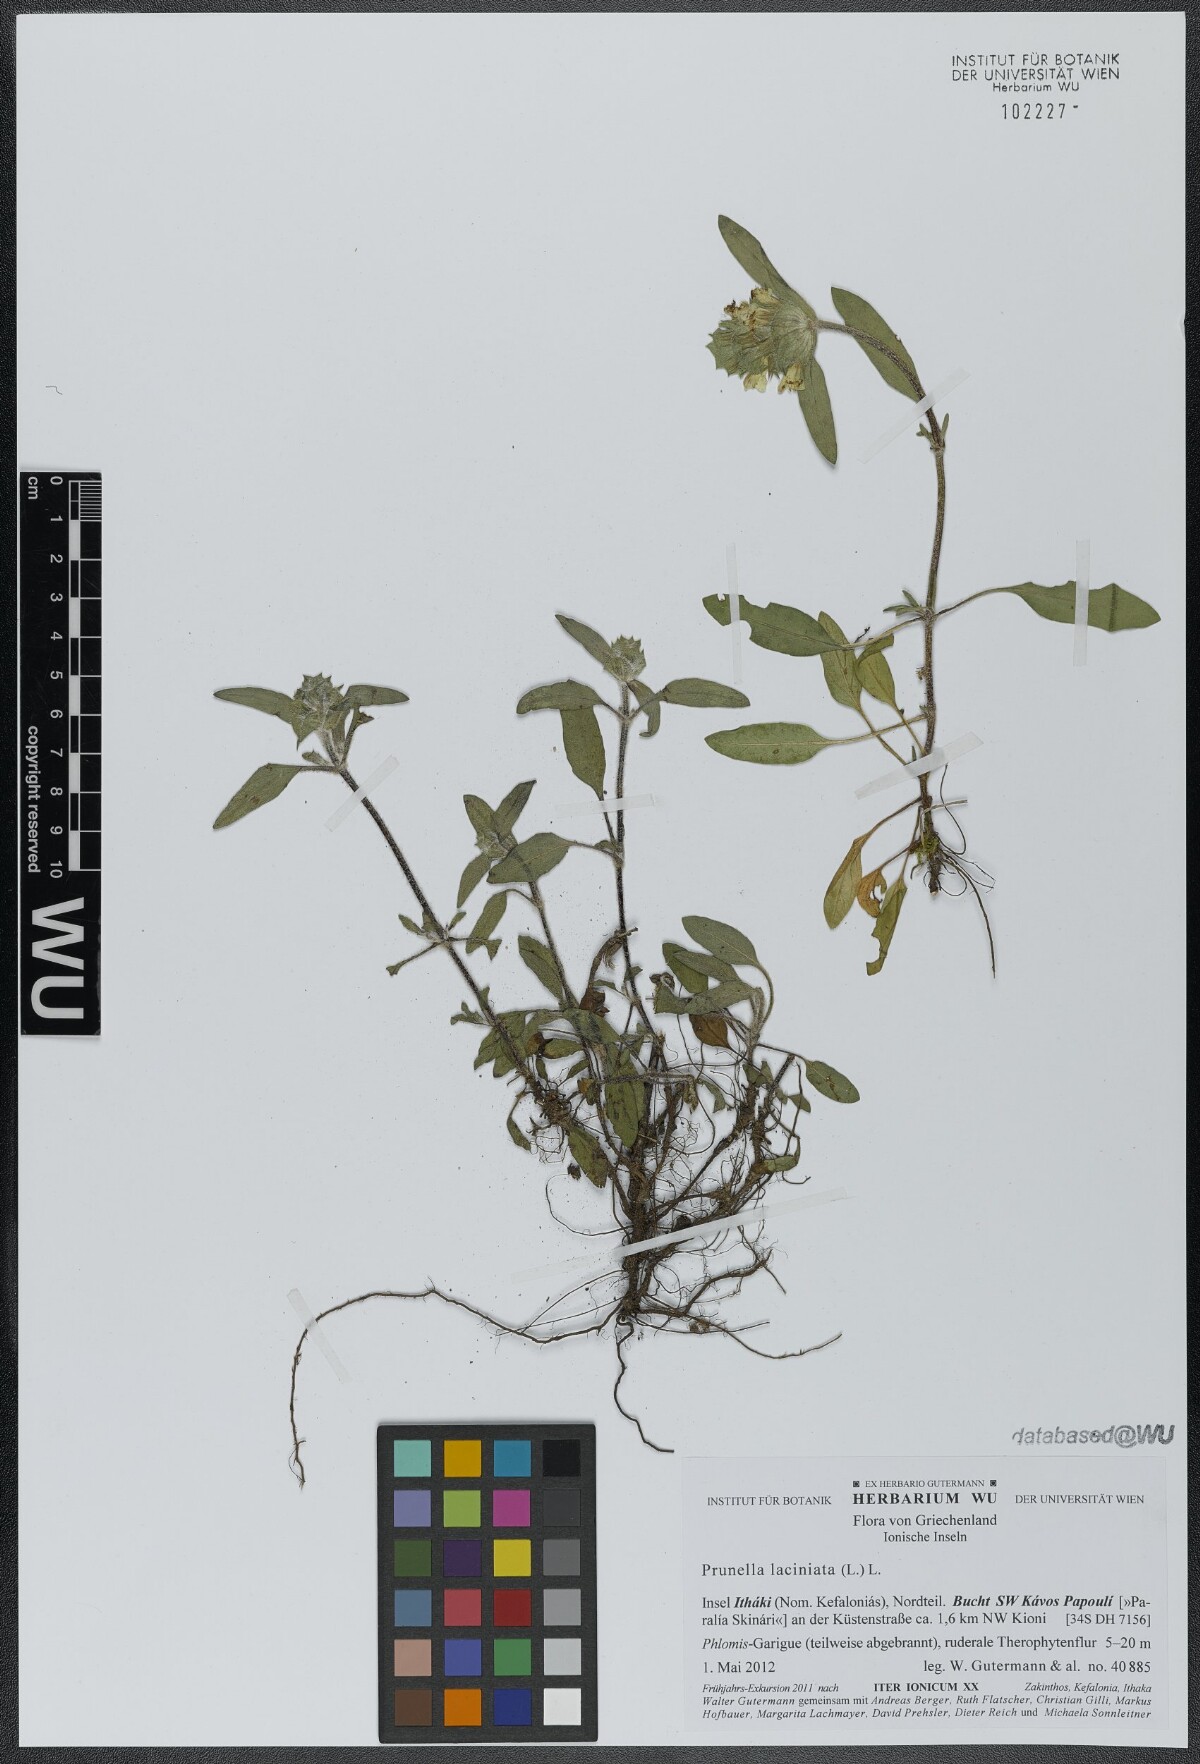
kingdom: Plantae
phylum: Tracheophyta
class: Magnoliopsida
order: Lamiales
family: Lamiaceae
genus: Prunella
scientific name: Prunella laciniata
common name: Cut-leaved selfheal
